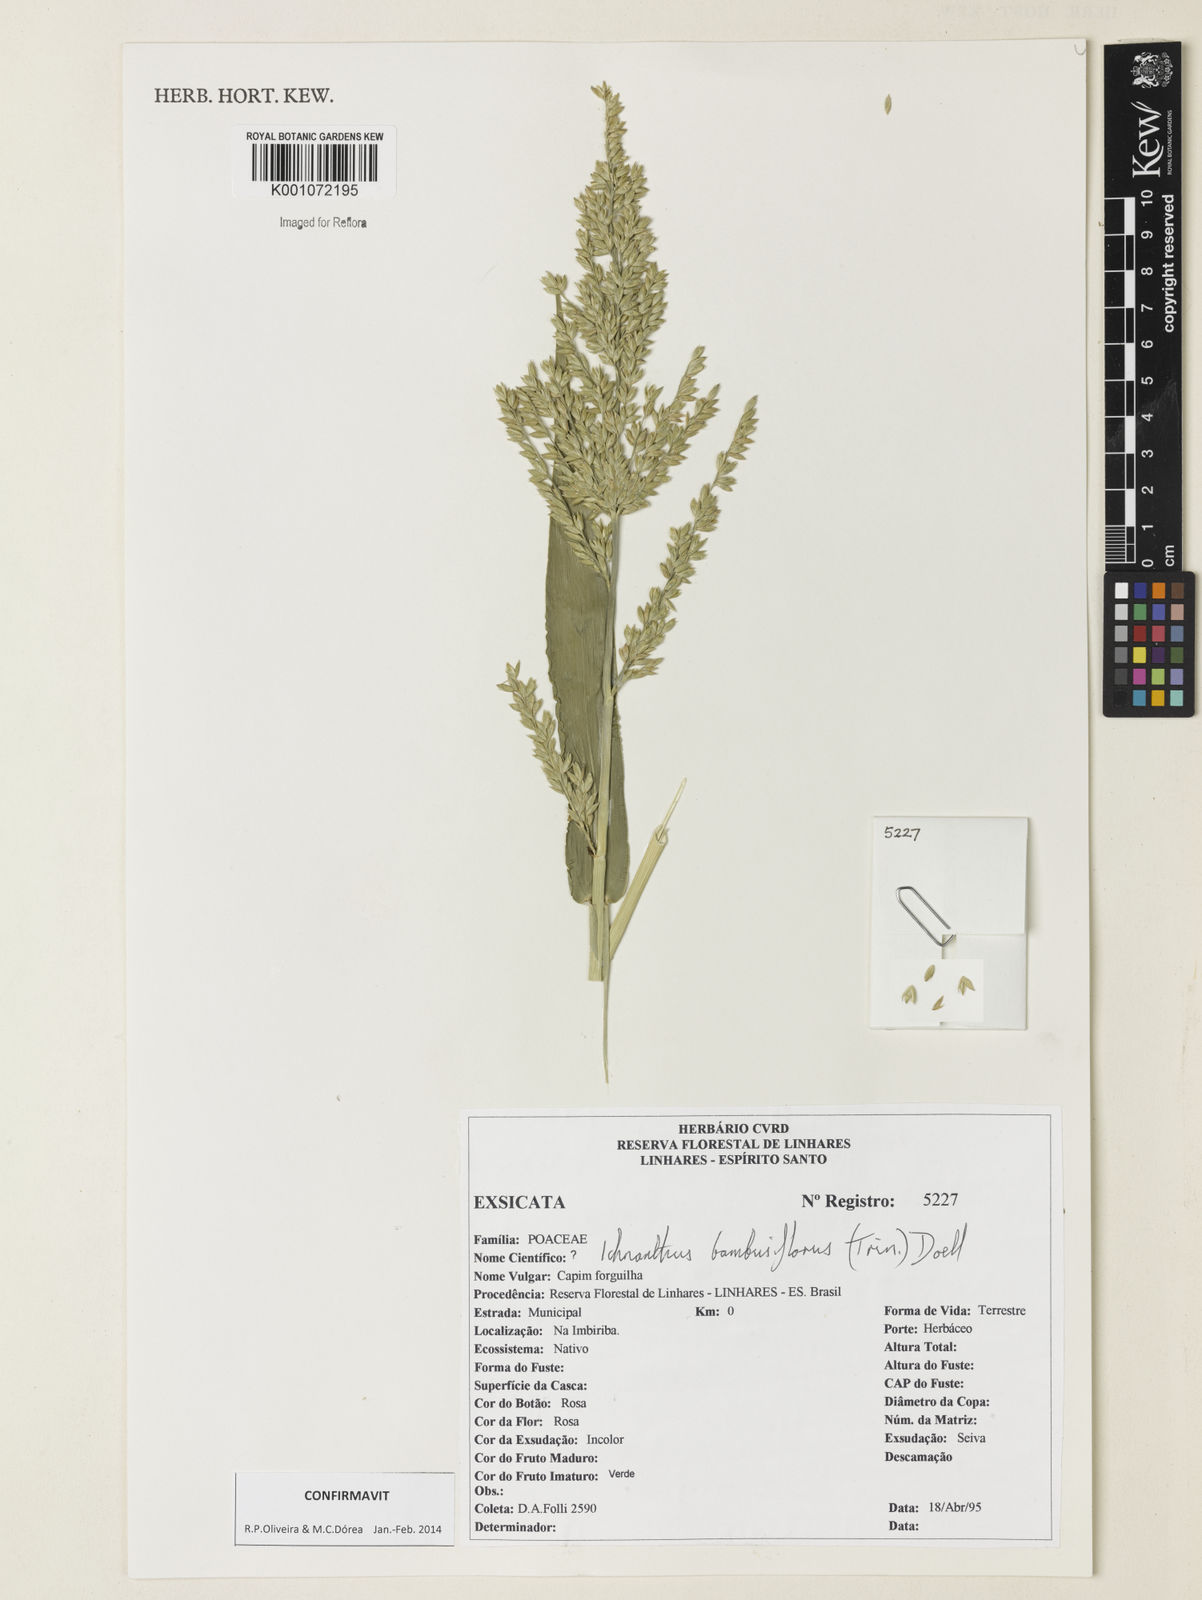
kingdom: Plantae
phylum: Tracheophyta
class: Liliopsida
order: Poales
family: Poaceae
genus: Ichnanthus
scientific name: Ichnanthus
